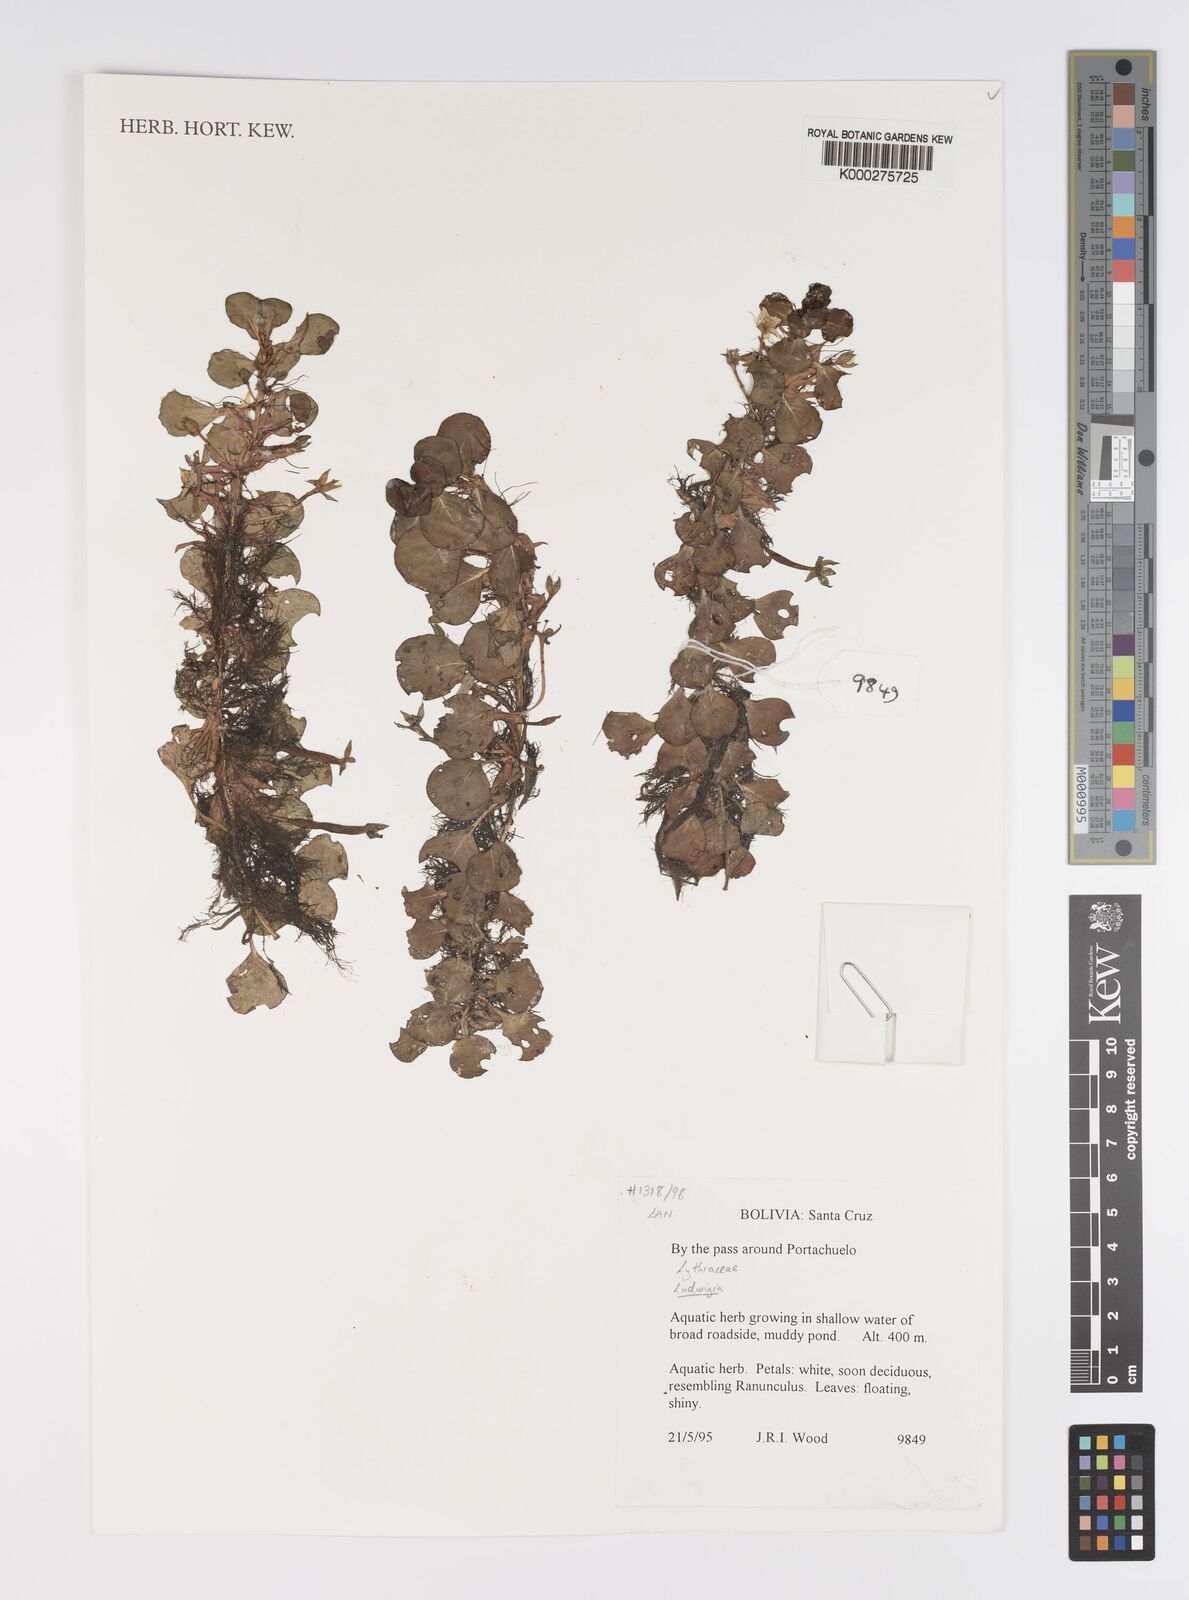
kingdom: Plantae
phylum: Tracheophyta
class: Magnoliopsida
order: Myrtales
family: Onagraceae
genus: Ludwigia
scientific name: Ludwigia
